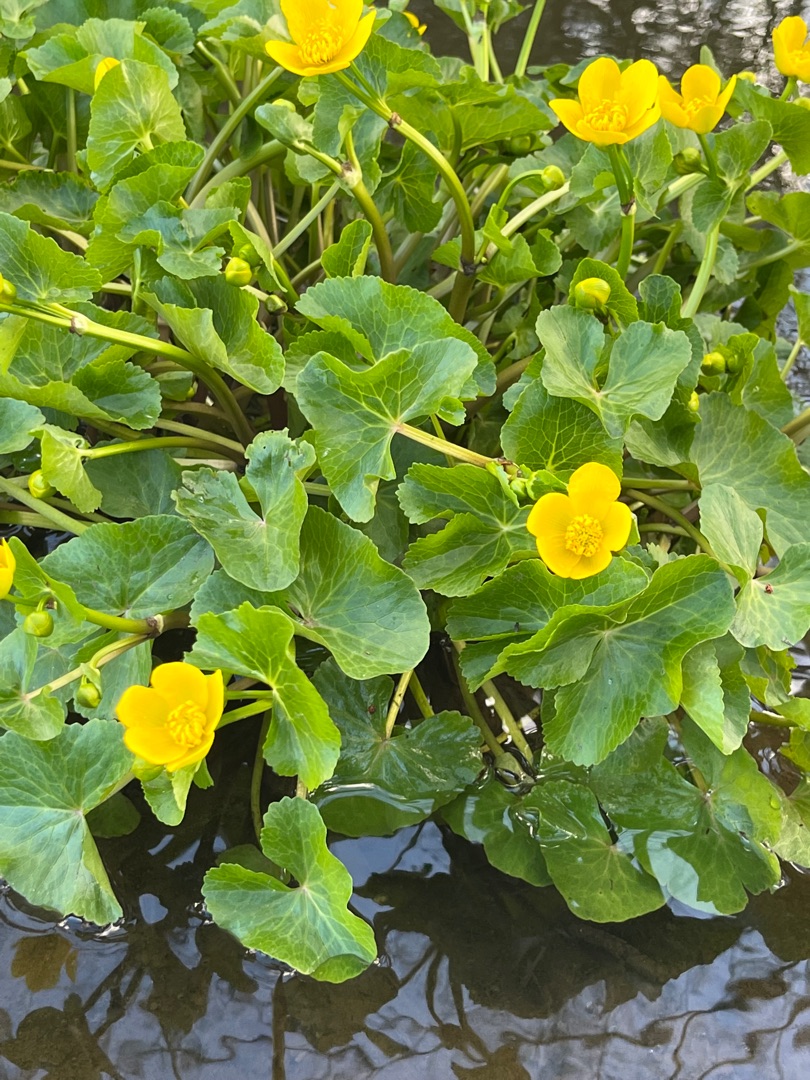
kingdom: Plantae
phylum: Tracheophyta
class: Magnoliopsida
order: Ranunculales
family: Ranunculaceae
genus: Caltha
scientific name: Caltha palustris
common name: Eng-kabbeleje
